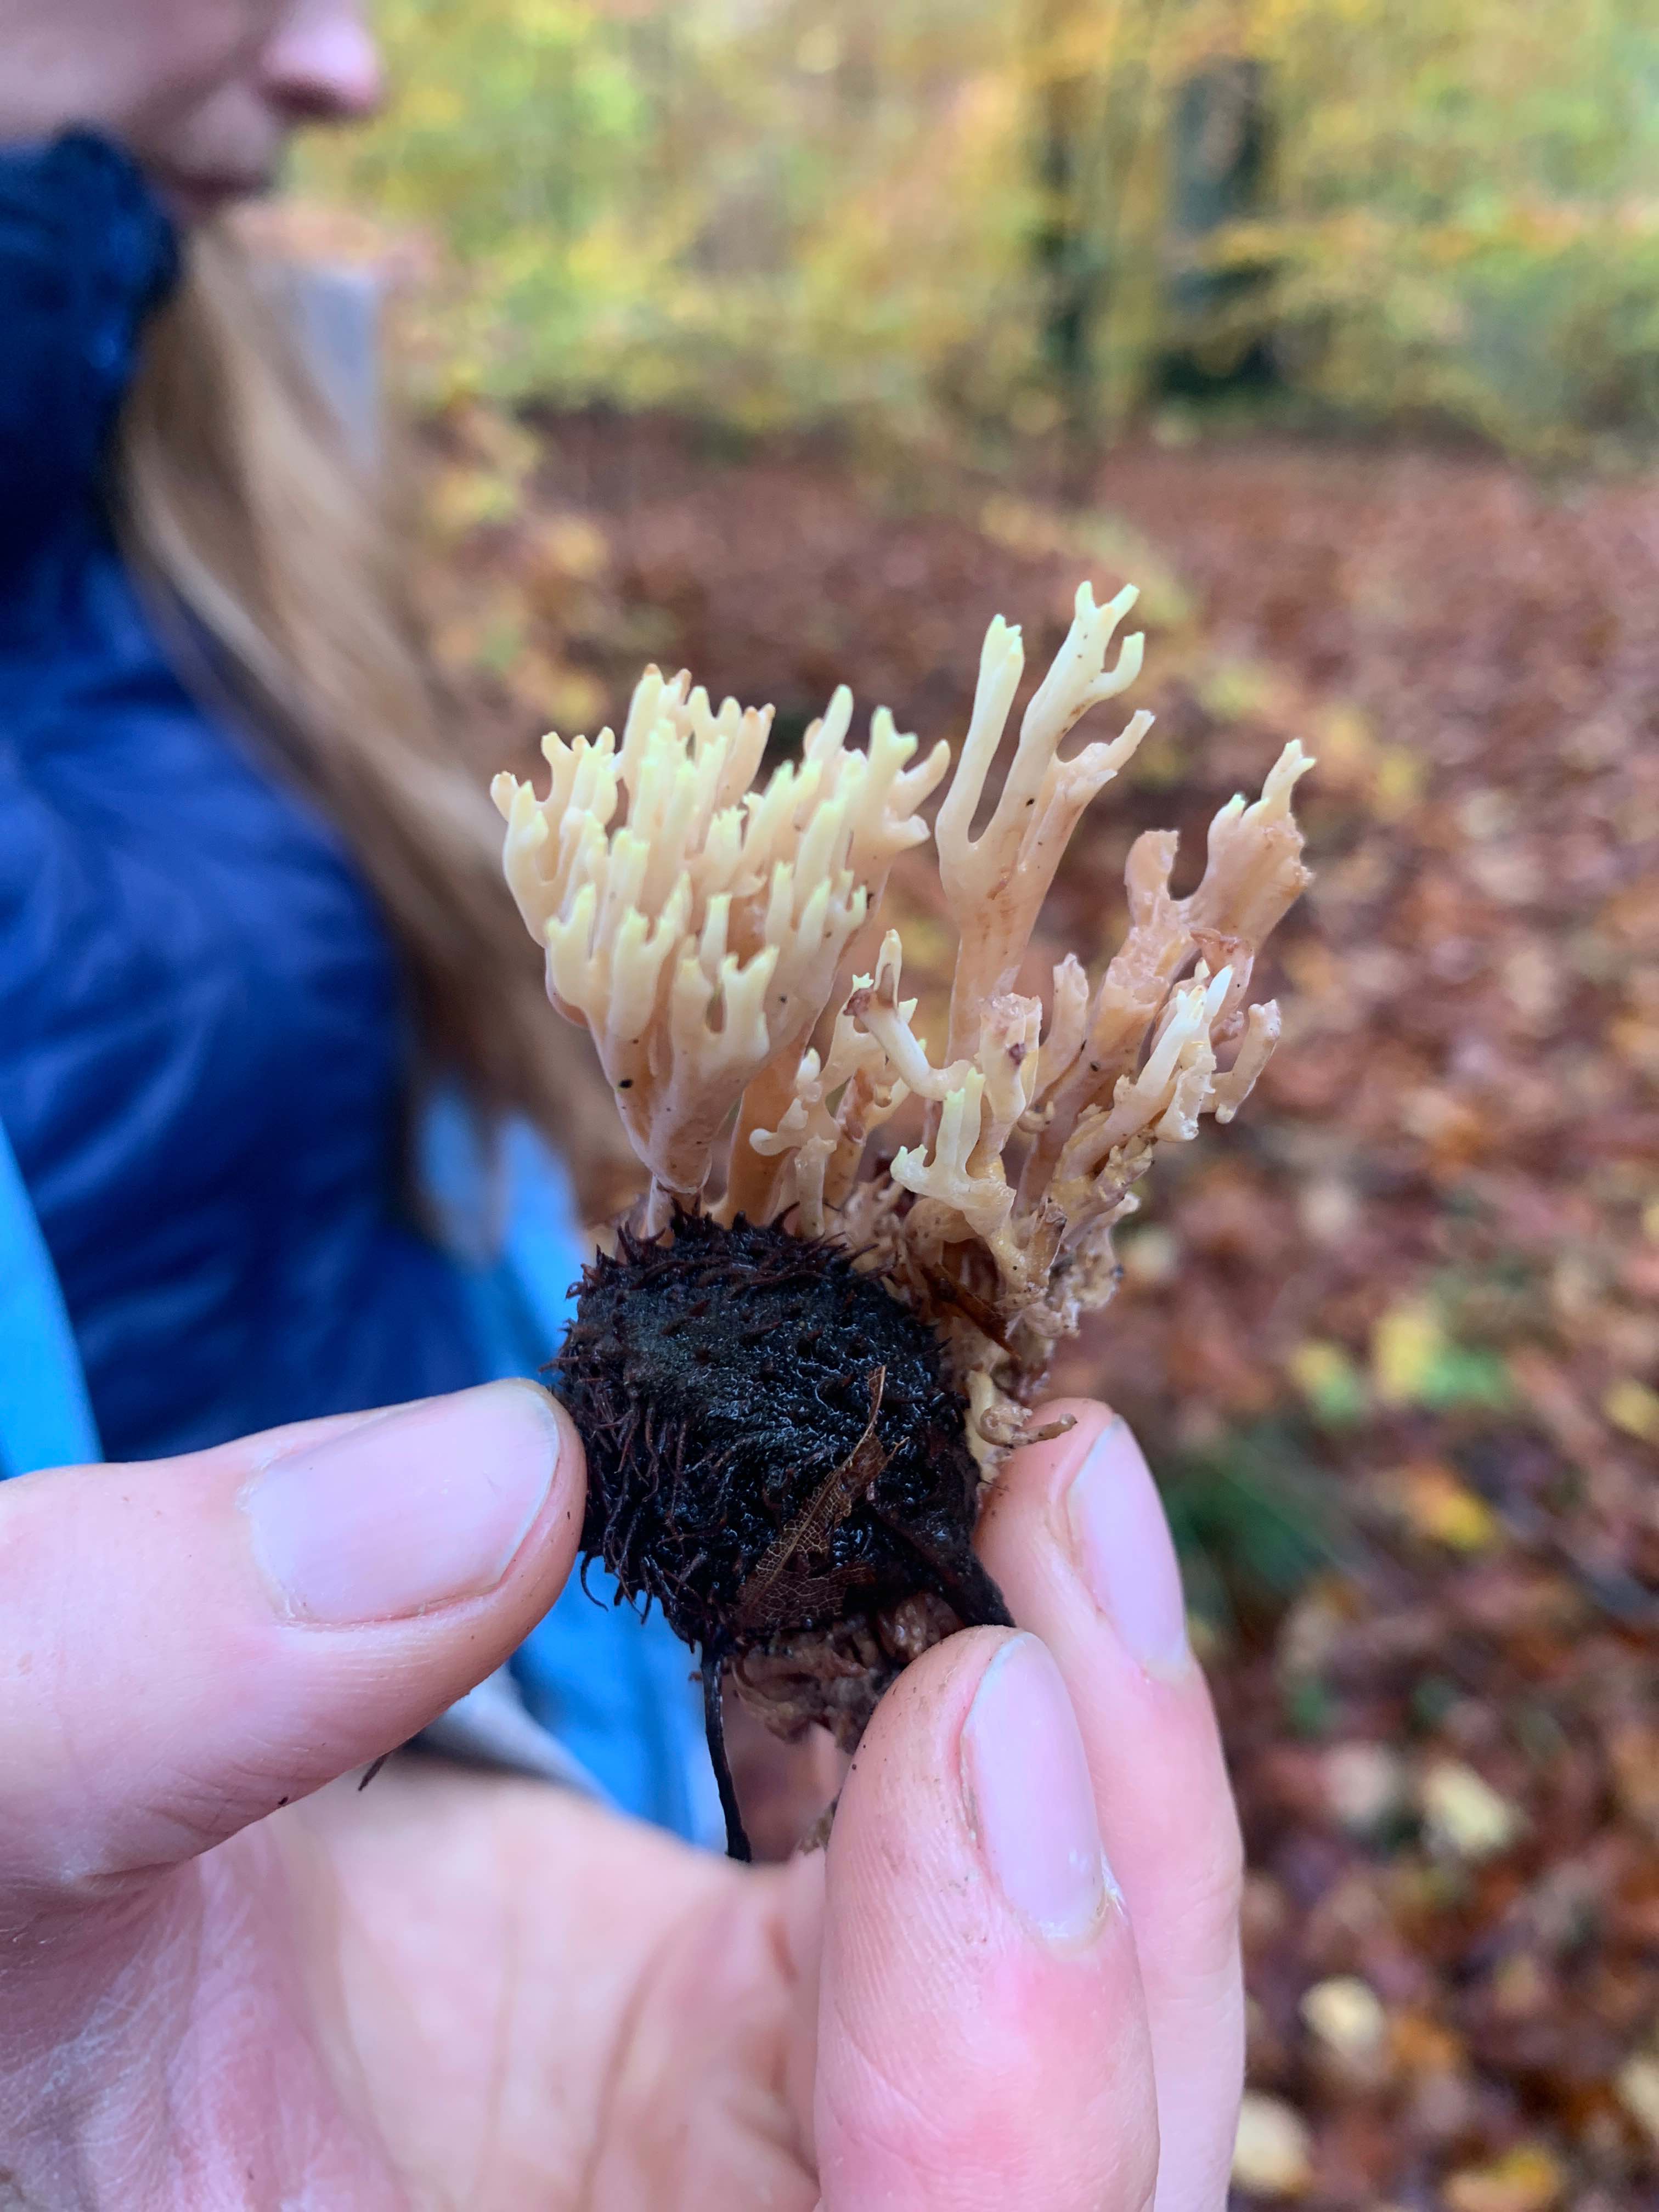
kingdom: Fungi
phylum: Basidiomycota
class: Agaricomycetes
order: Gomphales
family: Gomphaceae
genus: Ramaria
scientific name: Ramaria stricta
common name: rank koralsvamp
